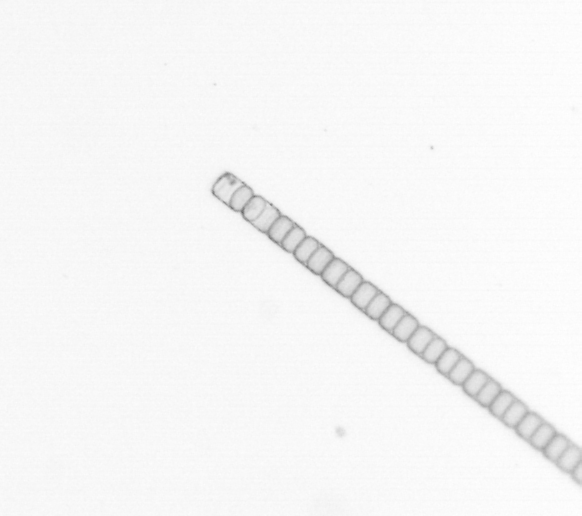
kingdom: Chromista
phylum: Ochrophyta
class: Bacillariophyceae
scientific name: Bacillariophyceae
